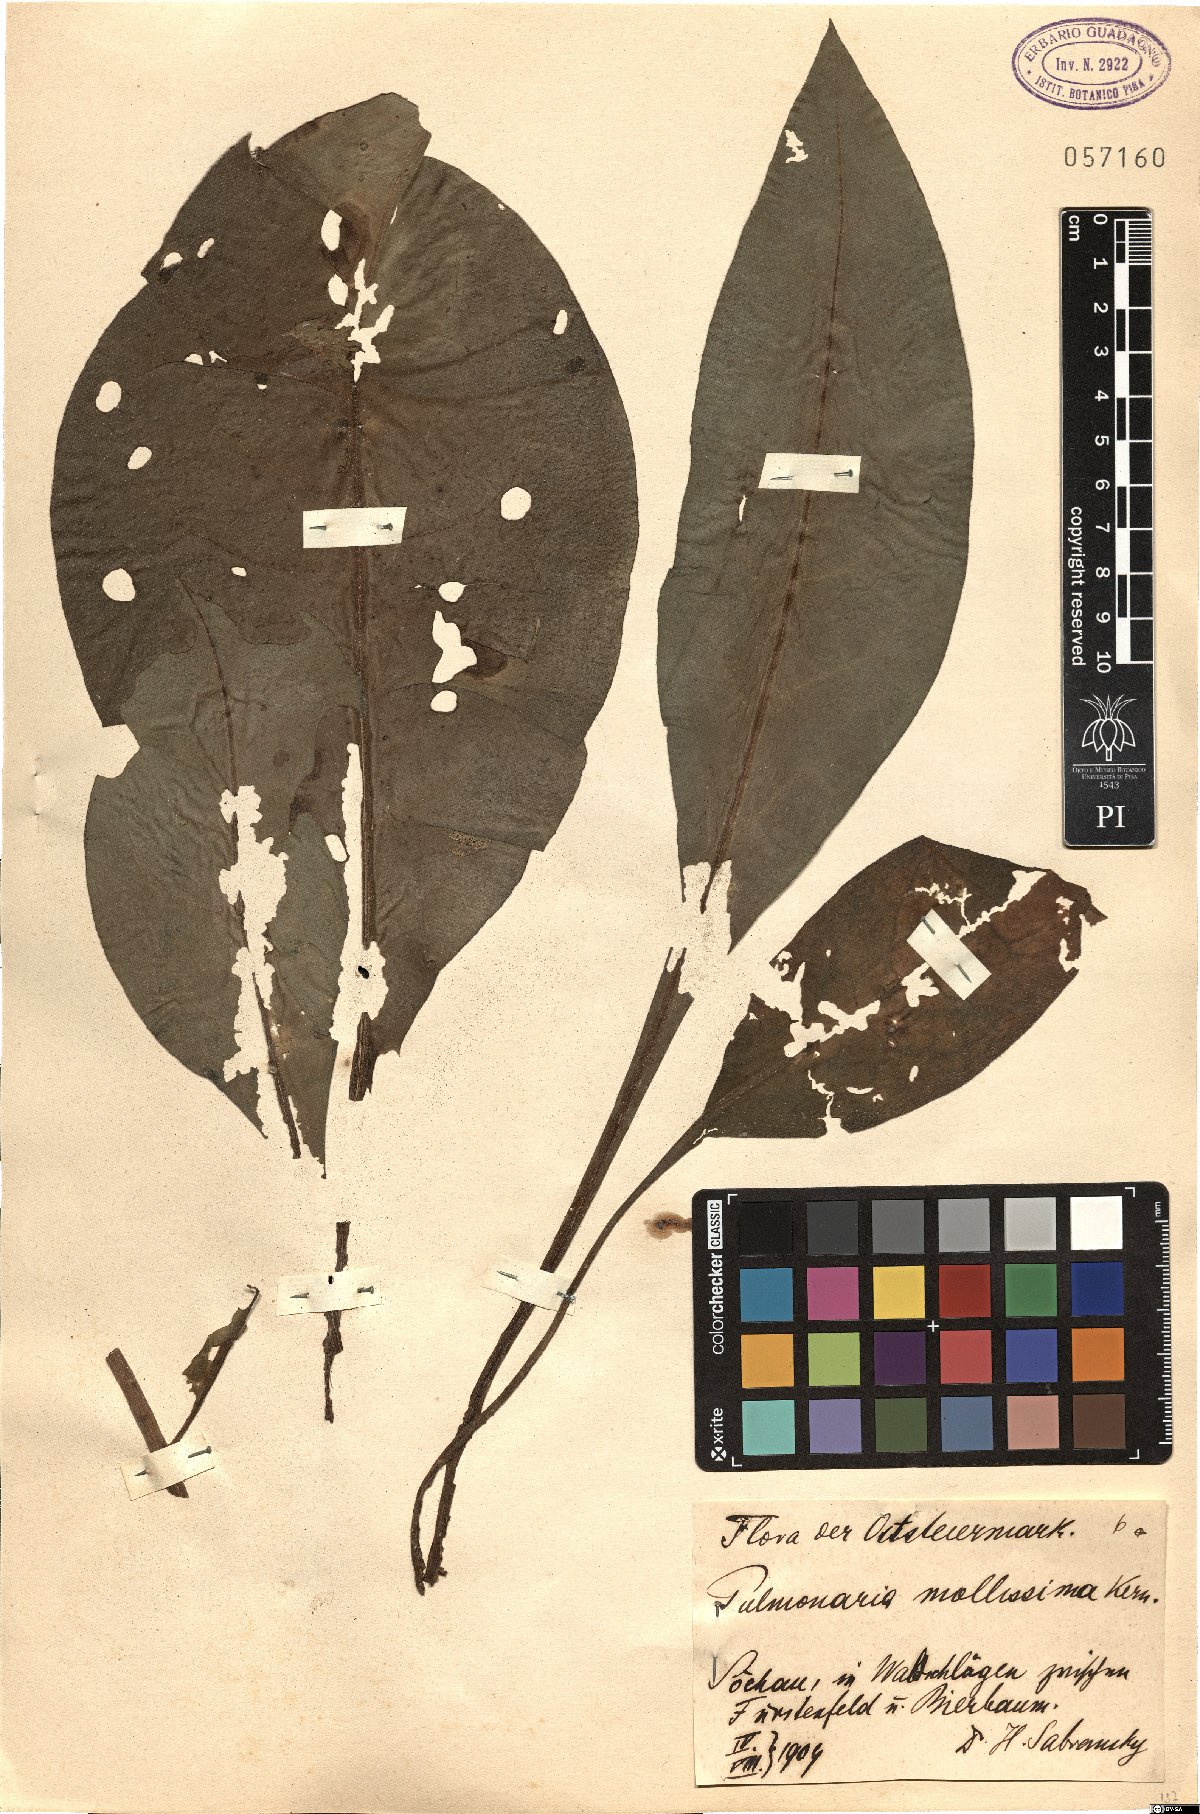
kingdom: Plantae
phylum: Tracheophyta
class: Magnoliopsida
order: Boraginales
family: Boraginaceae
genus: Pulmonaria
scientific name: Pulmonaria mollis
